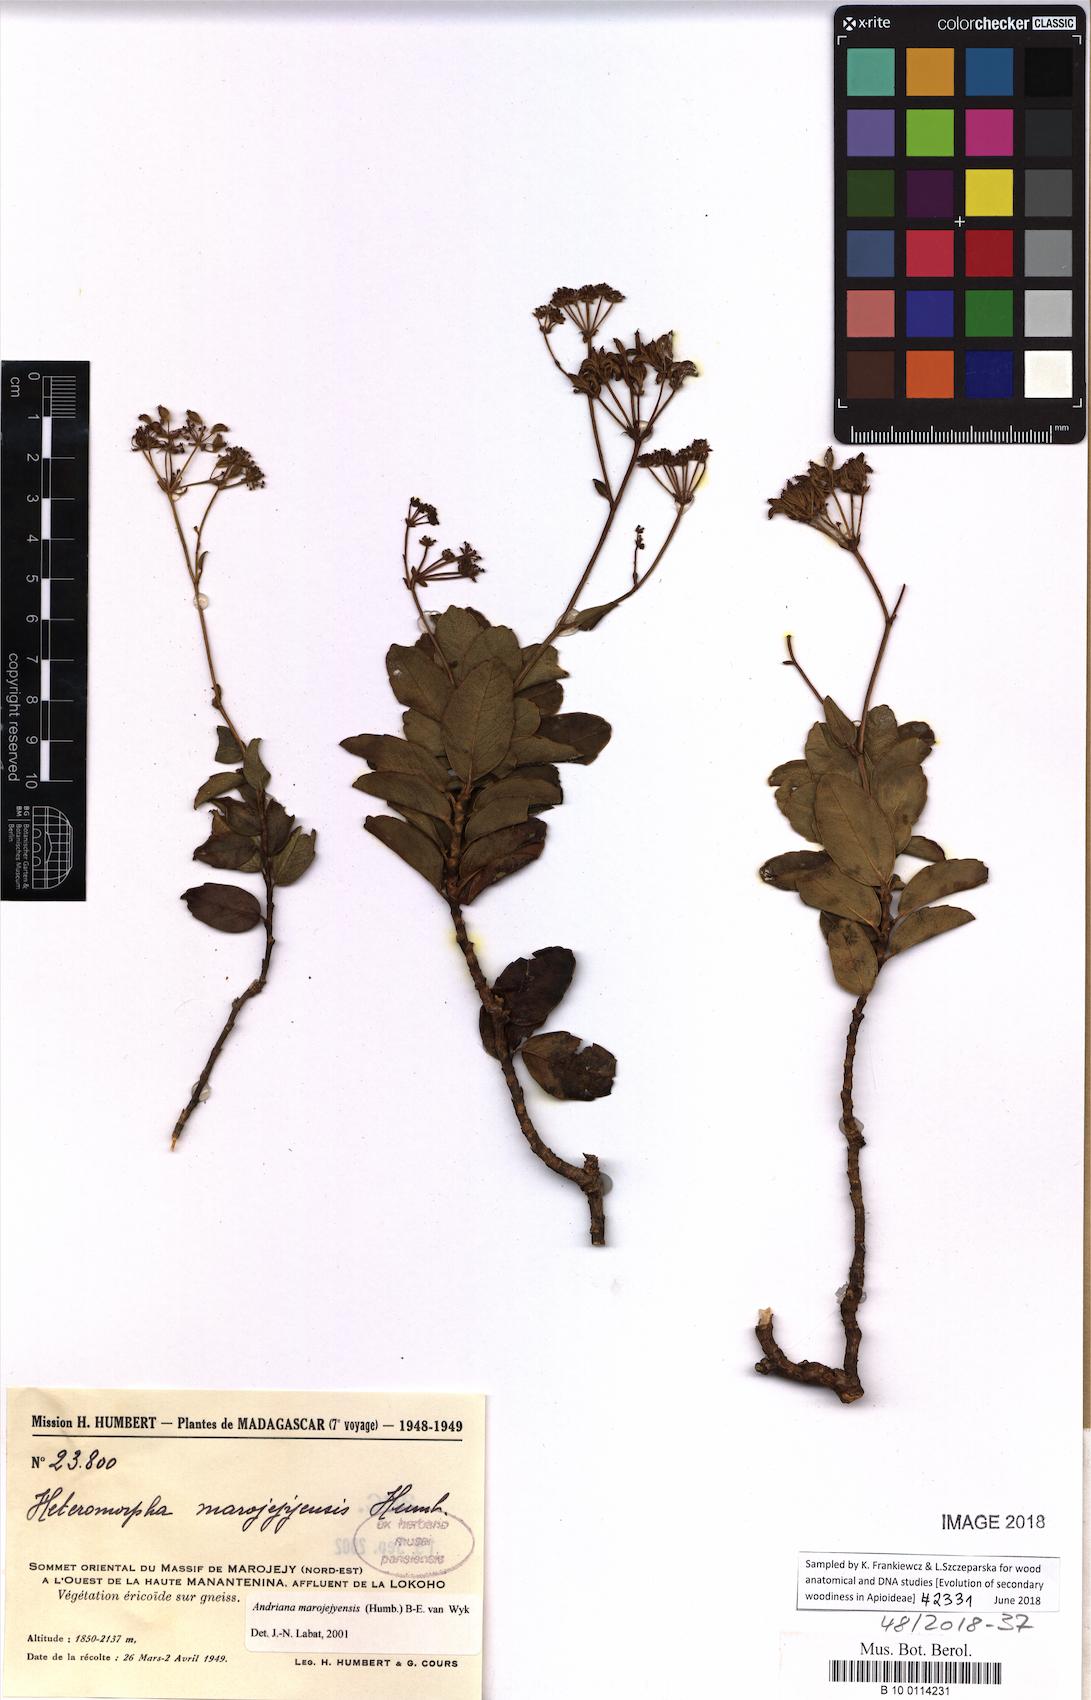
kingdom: Plantae
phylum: Tracheophyta
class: Magnoliopsida
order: Apiales
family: Apiaceae
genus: Andriana
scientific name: Andriana marojejyensis
